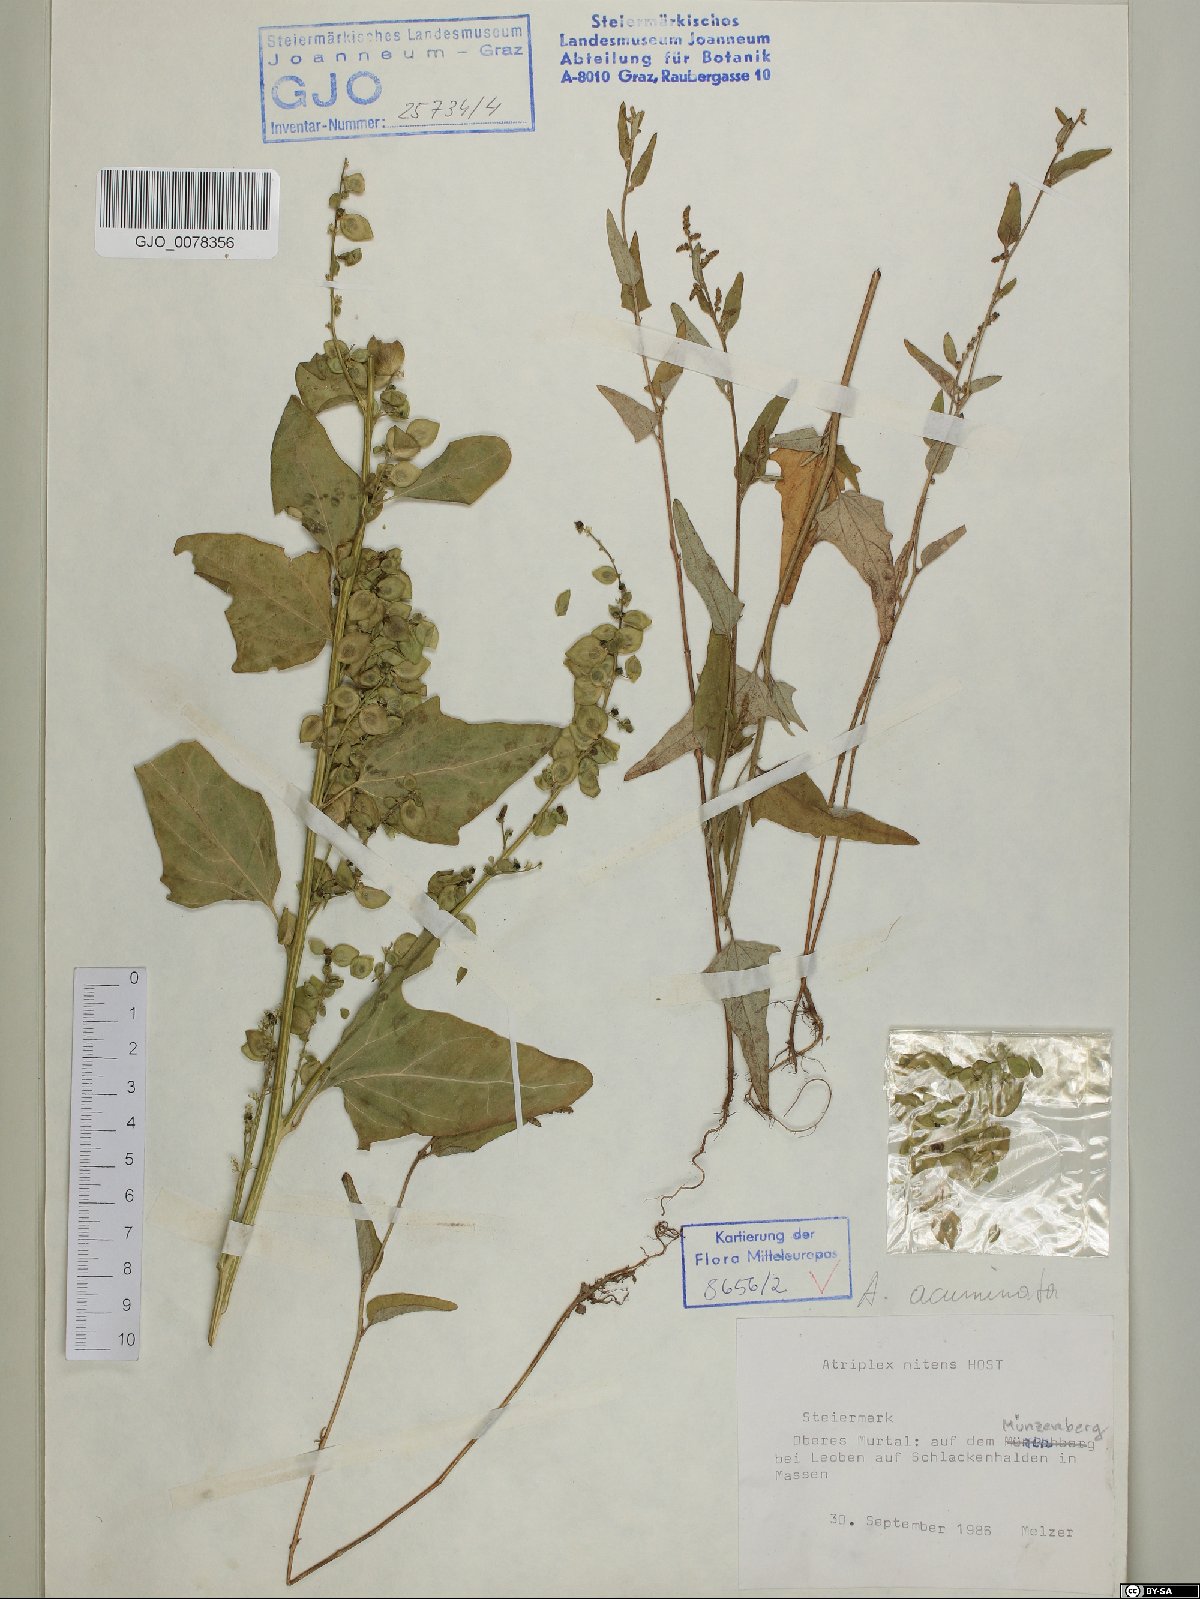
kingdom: Plantae
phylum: Tracheophyta
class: Magnoliopsida
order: Caryophyllales
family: Amaranthaceae
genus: Atriplex
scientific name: Atriplex sagittata
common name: Purple orache
